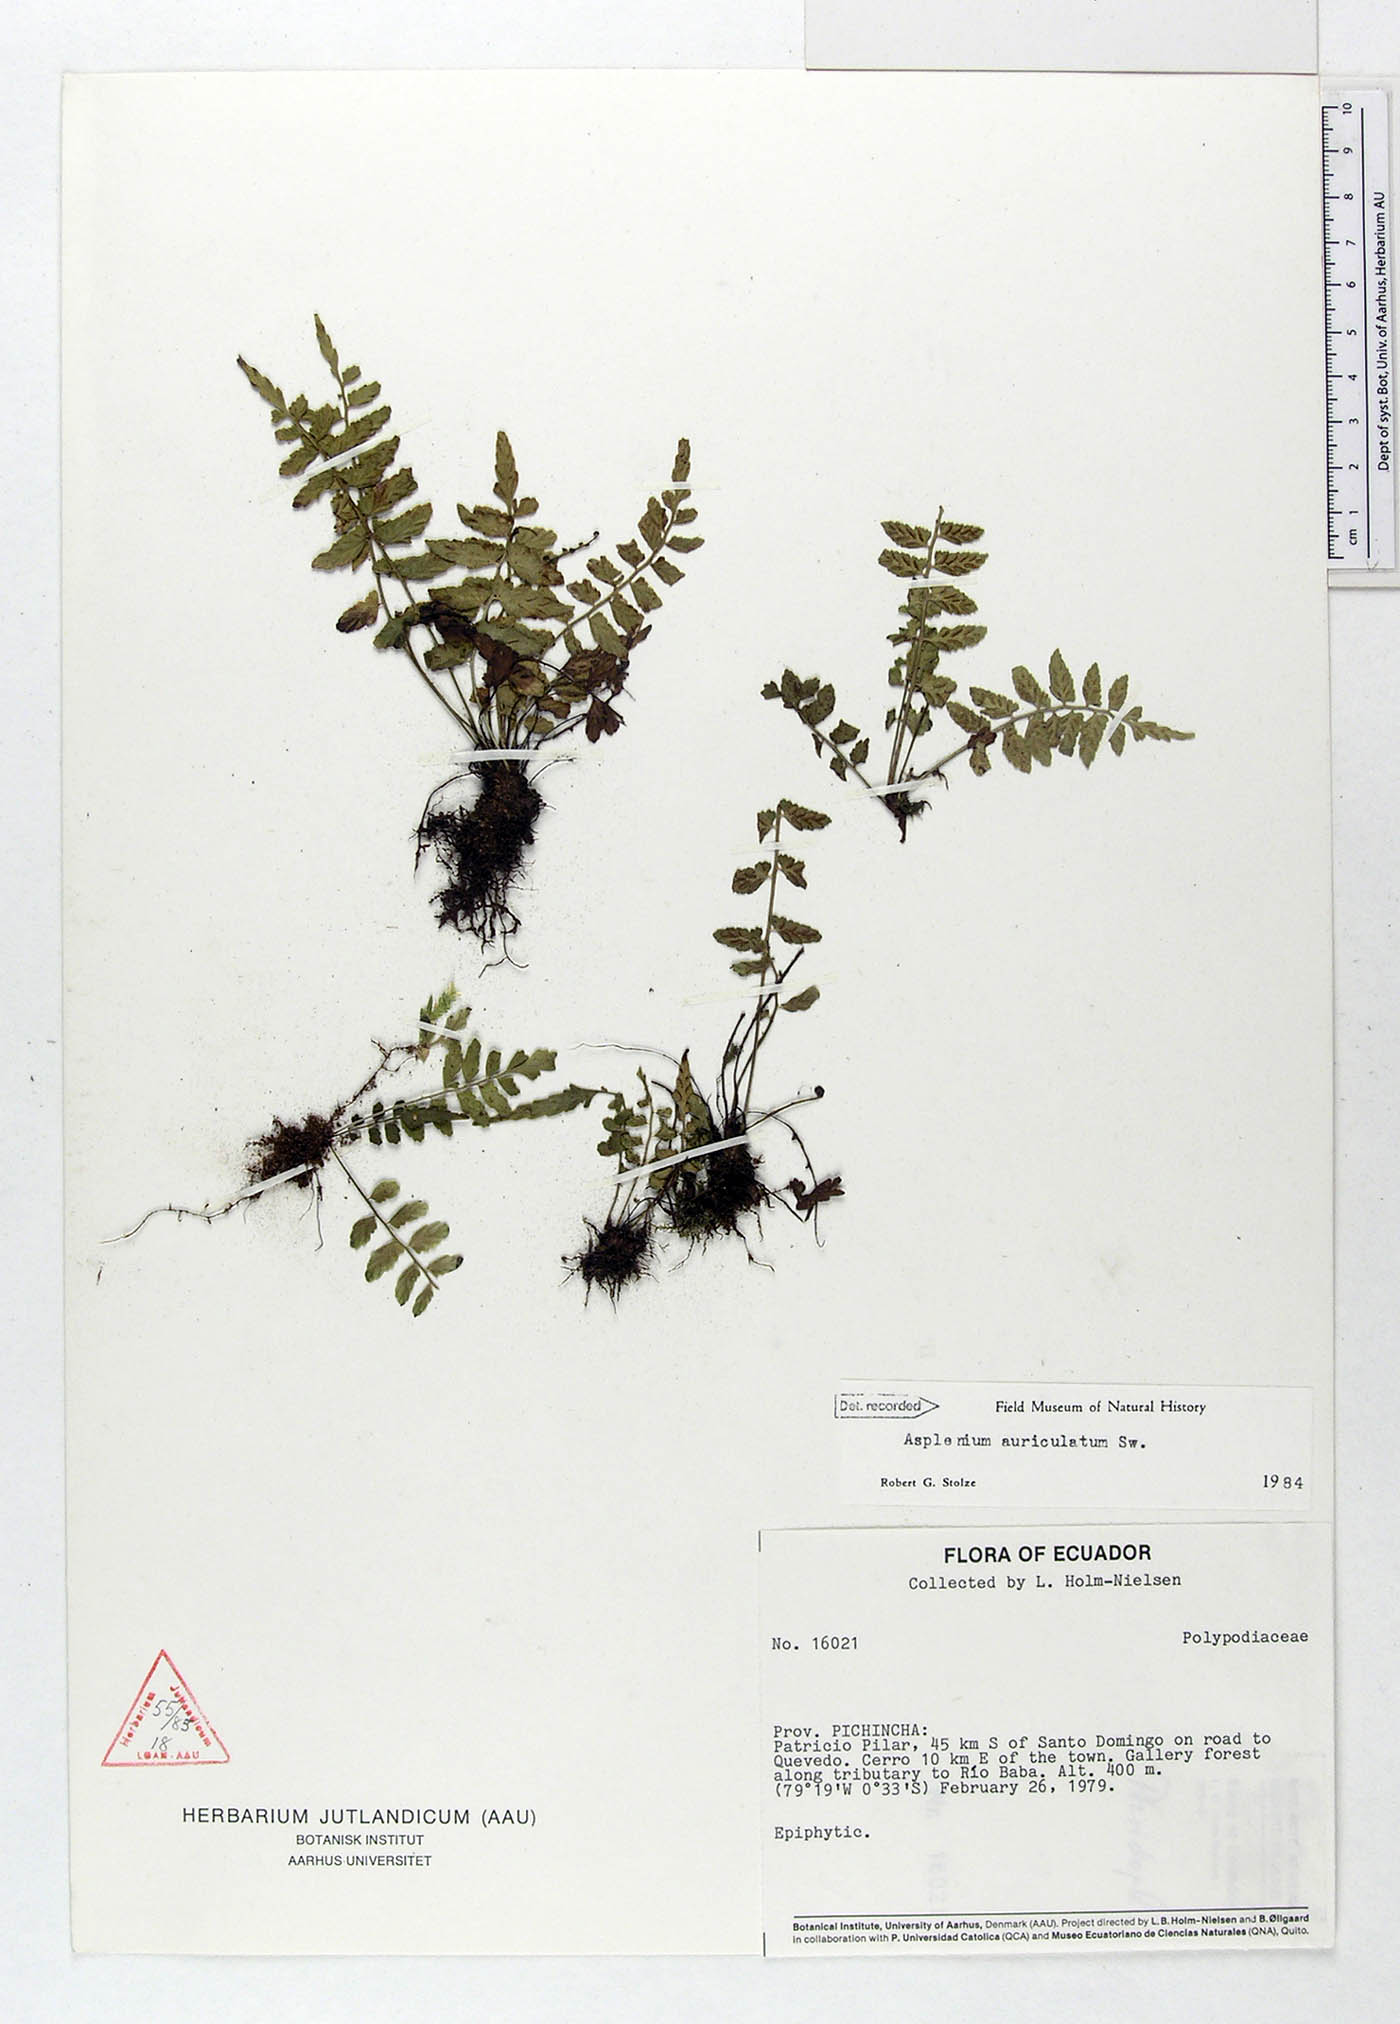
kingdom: Plantae
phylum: Tracheophyta
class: Polypodiopsida
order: Polypodiales
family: Aspleniaceae
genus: Asplenium
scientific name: Asplenium auriculatum
